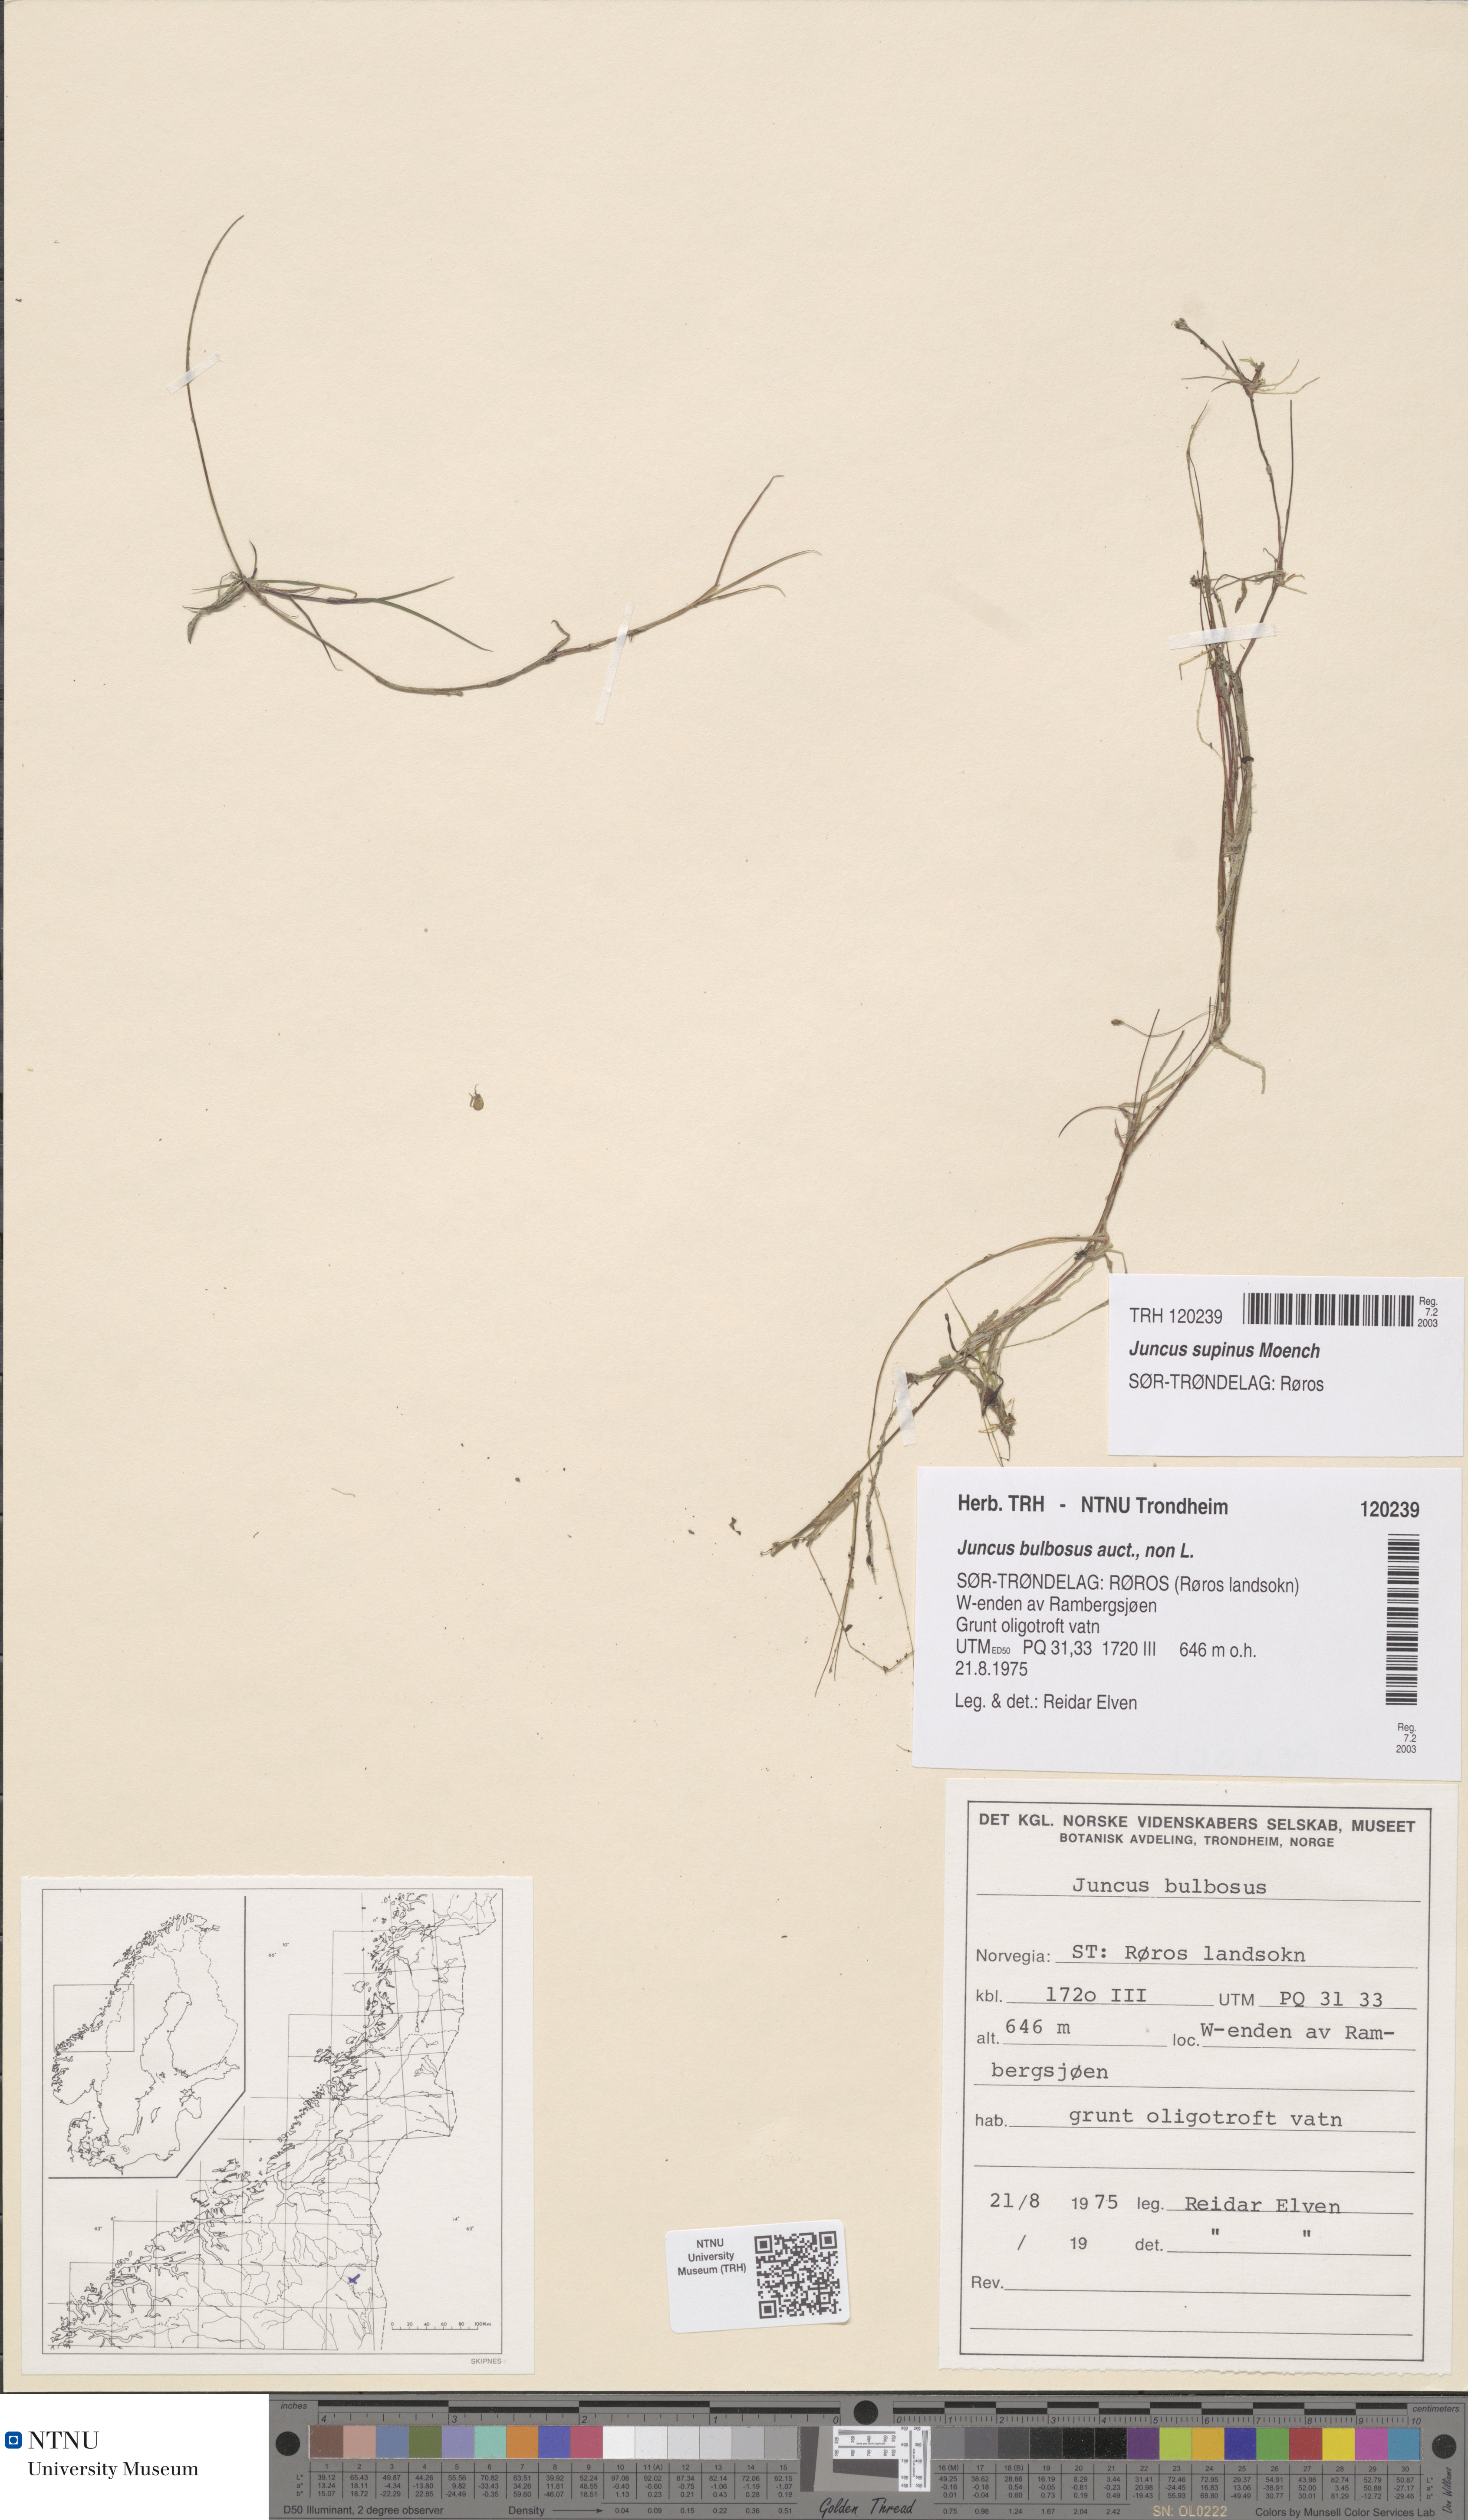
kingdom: Plantae
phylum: Tracheophyta
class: Liliopsida
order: Poales
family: Juncaceae
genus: Juncus
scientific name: Juncus bulbosus
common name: Bulbous rush
